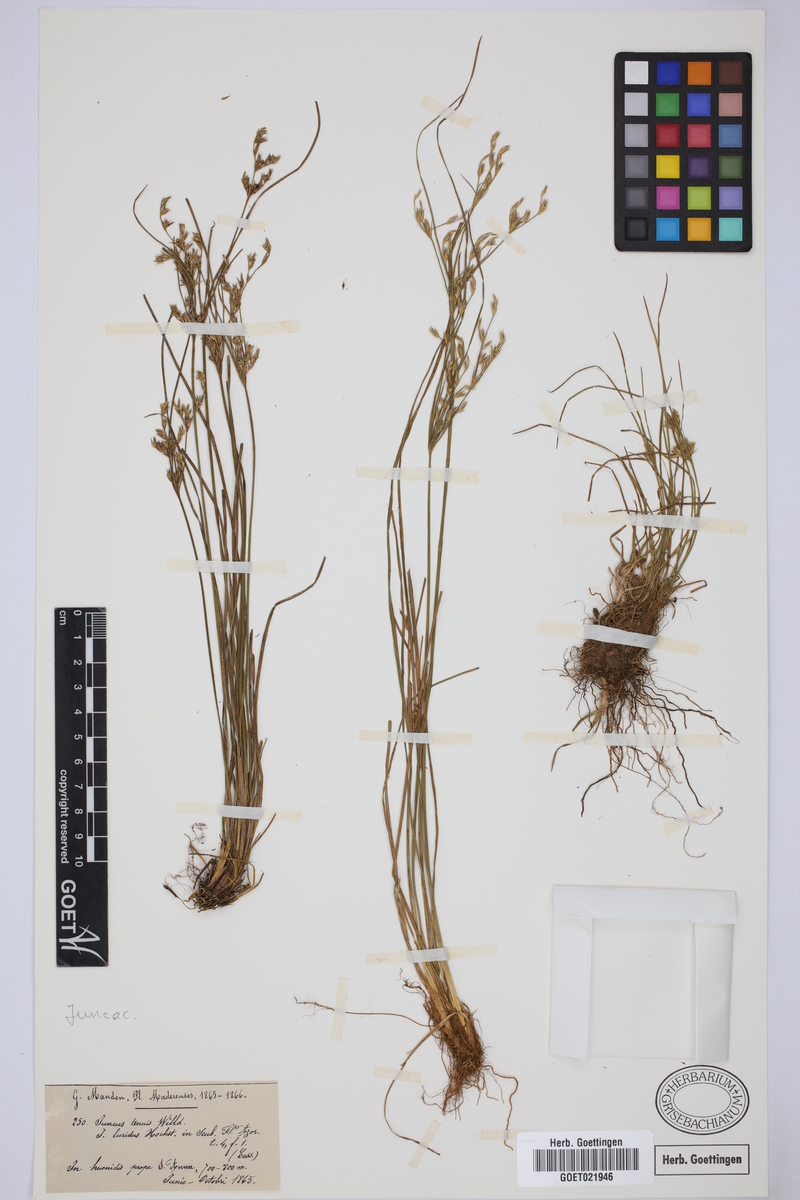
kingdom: Plantae
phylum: Tracheophyta
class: Liliopsida
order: Poales
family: Juncaceae
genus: Juncus
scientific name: Juncus tenuis
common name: Slender rush
